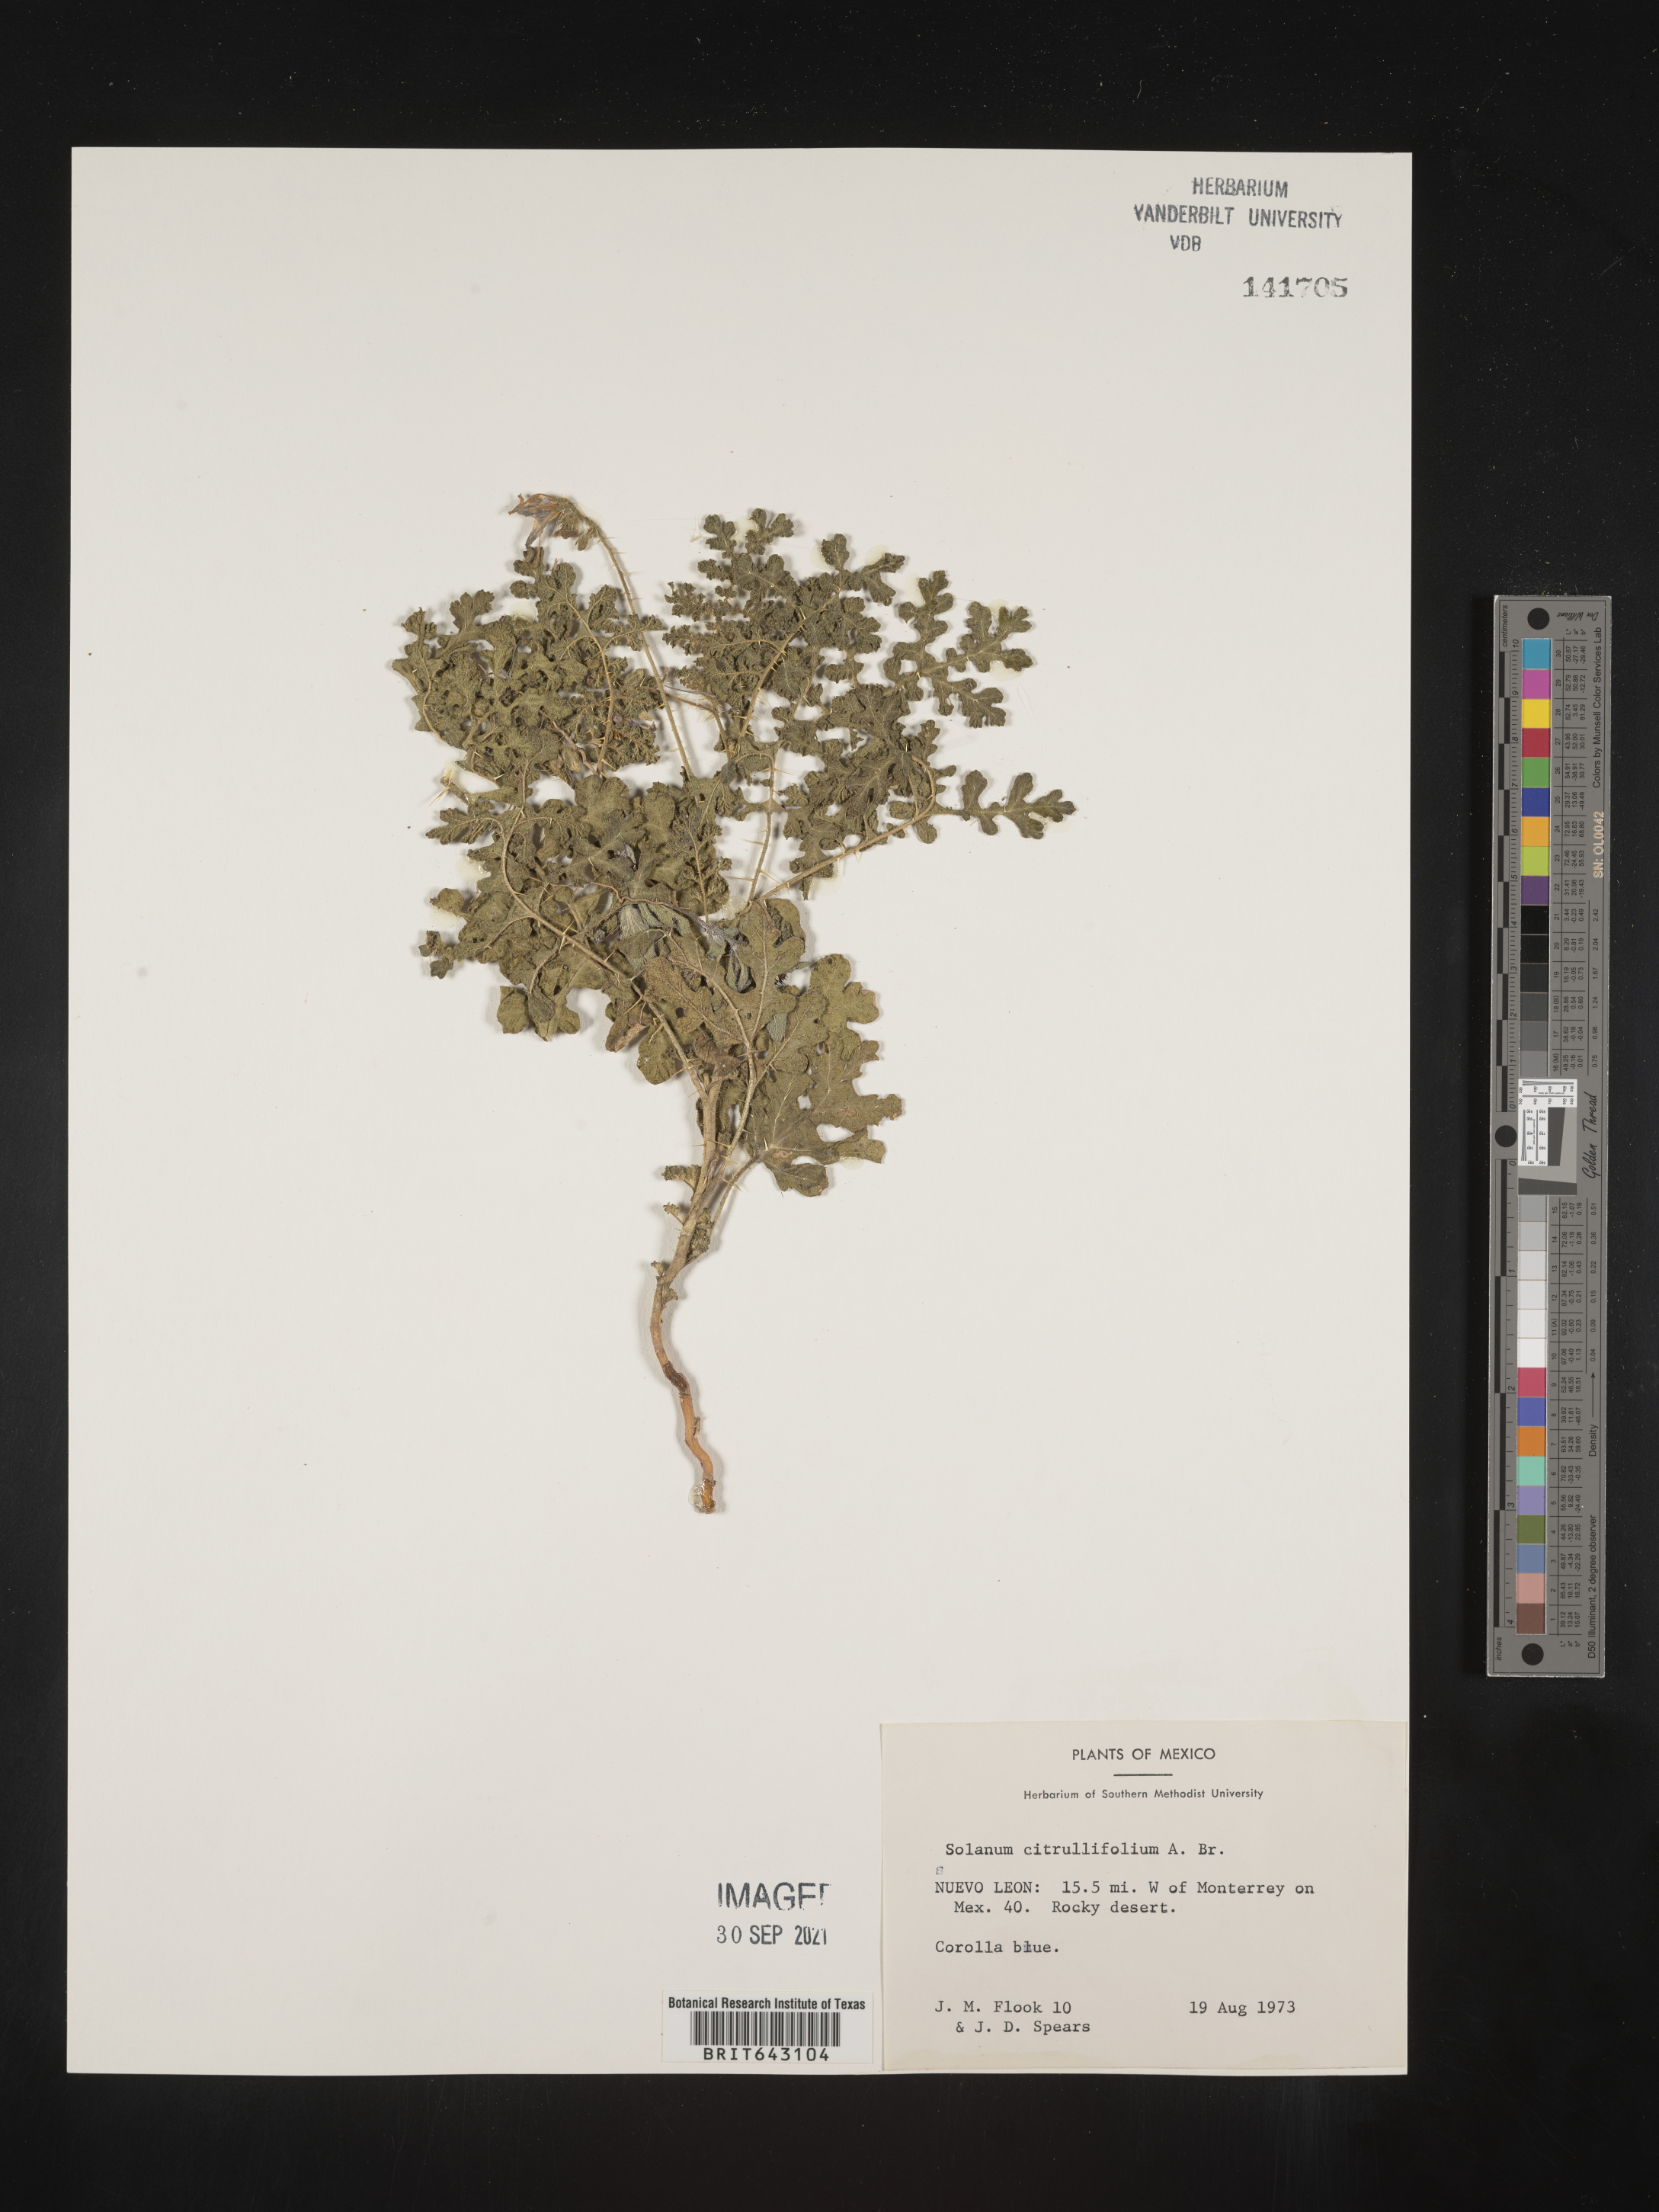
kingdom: Plantae
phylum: Tracheophyta
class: Magnoliopsida
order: Solanales
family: Solanaceae
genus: Solanum
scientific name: Solanum
